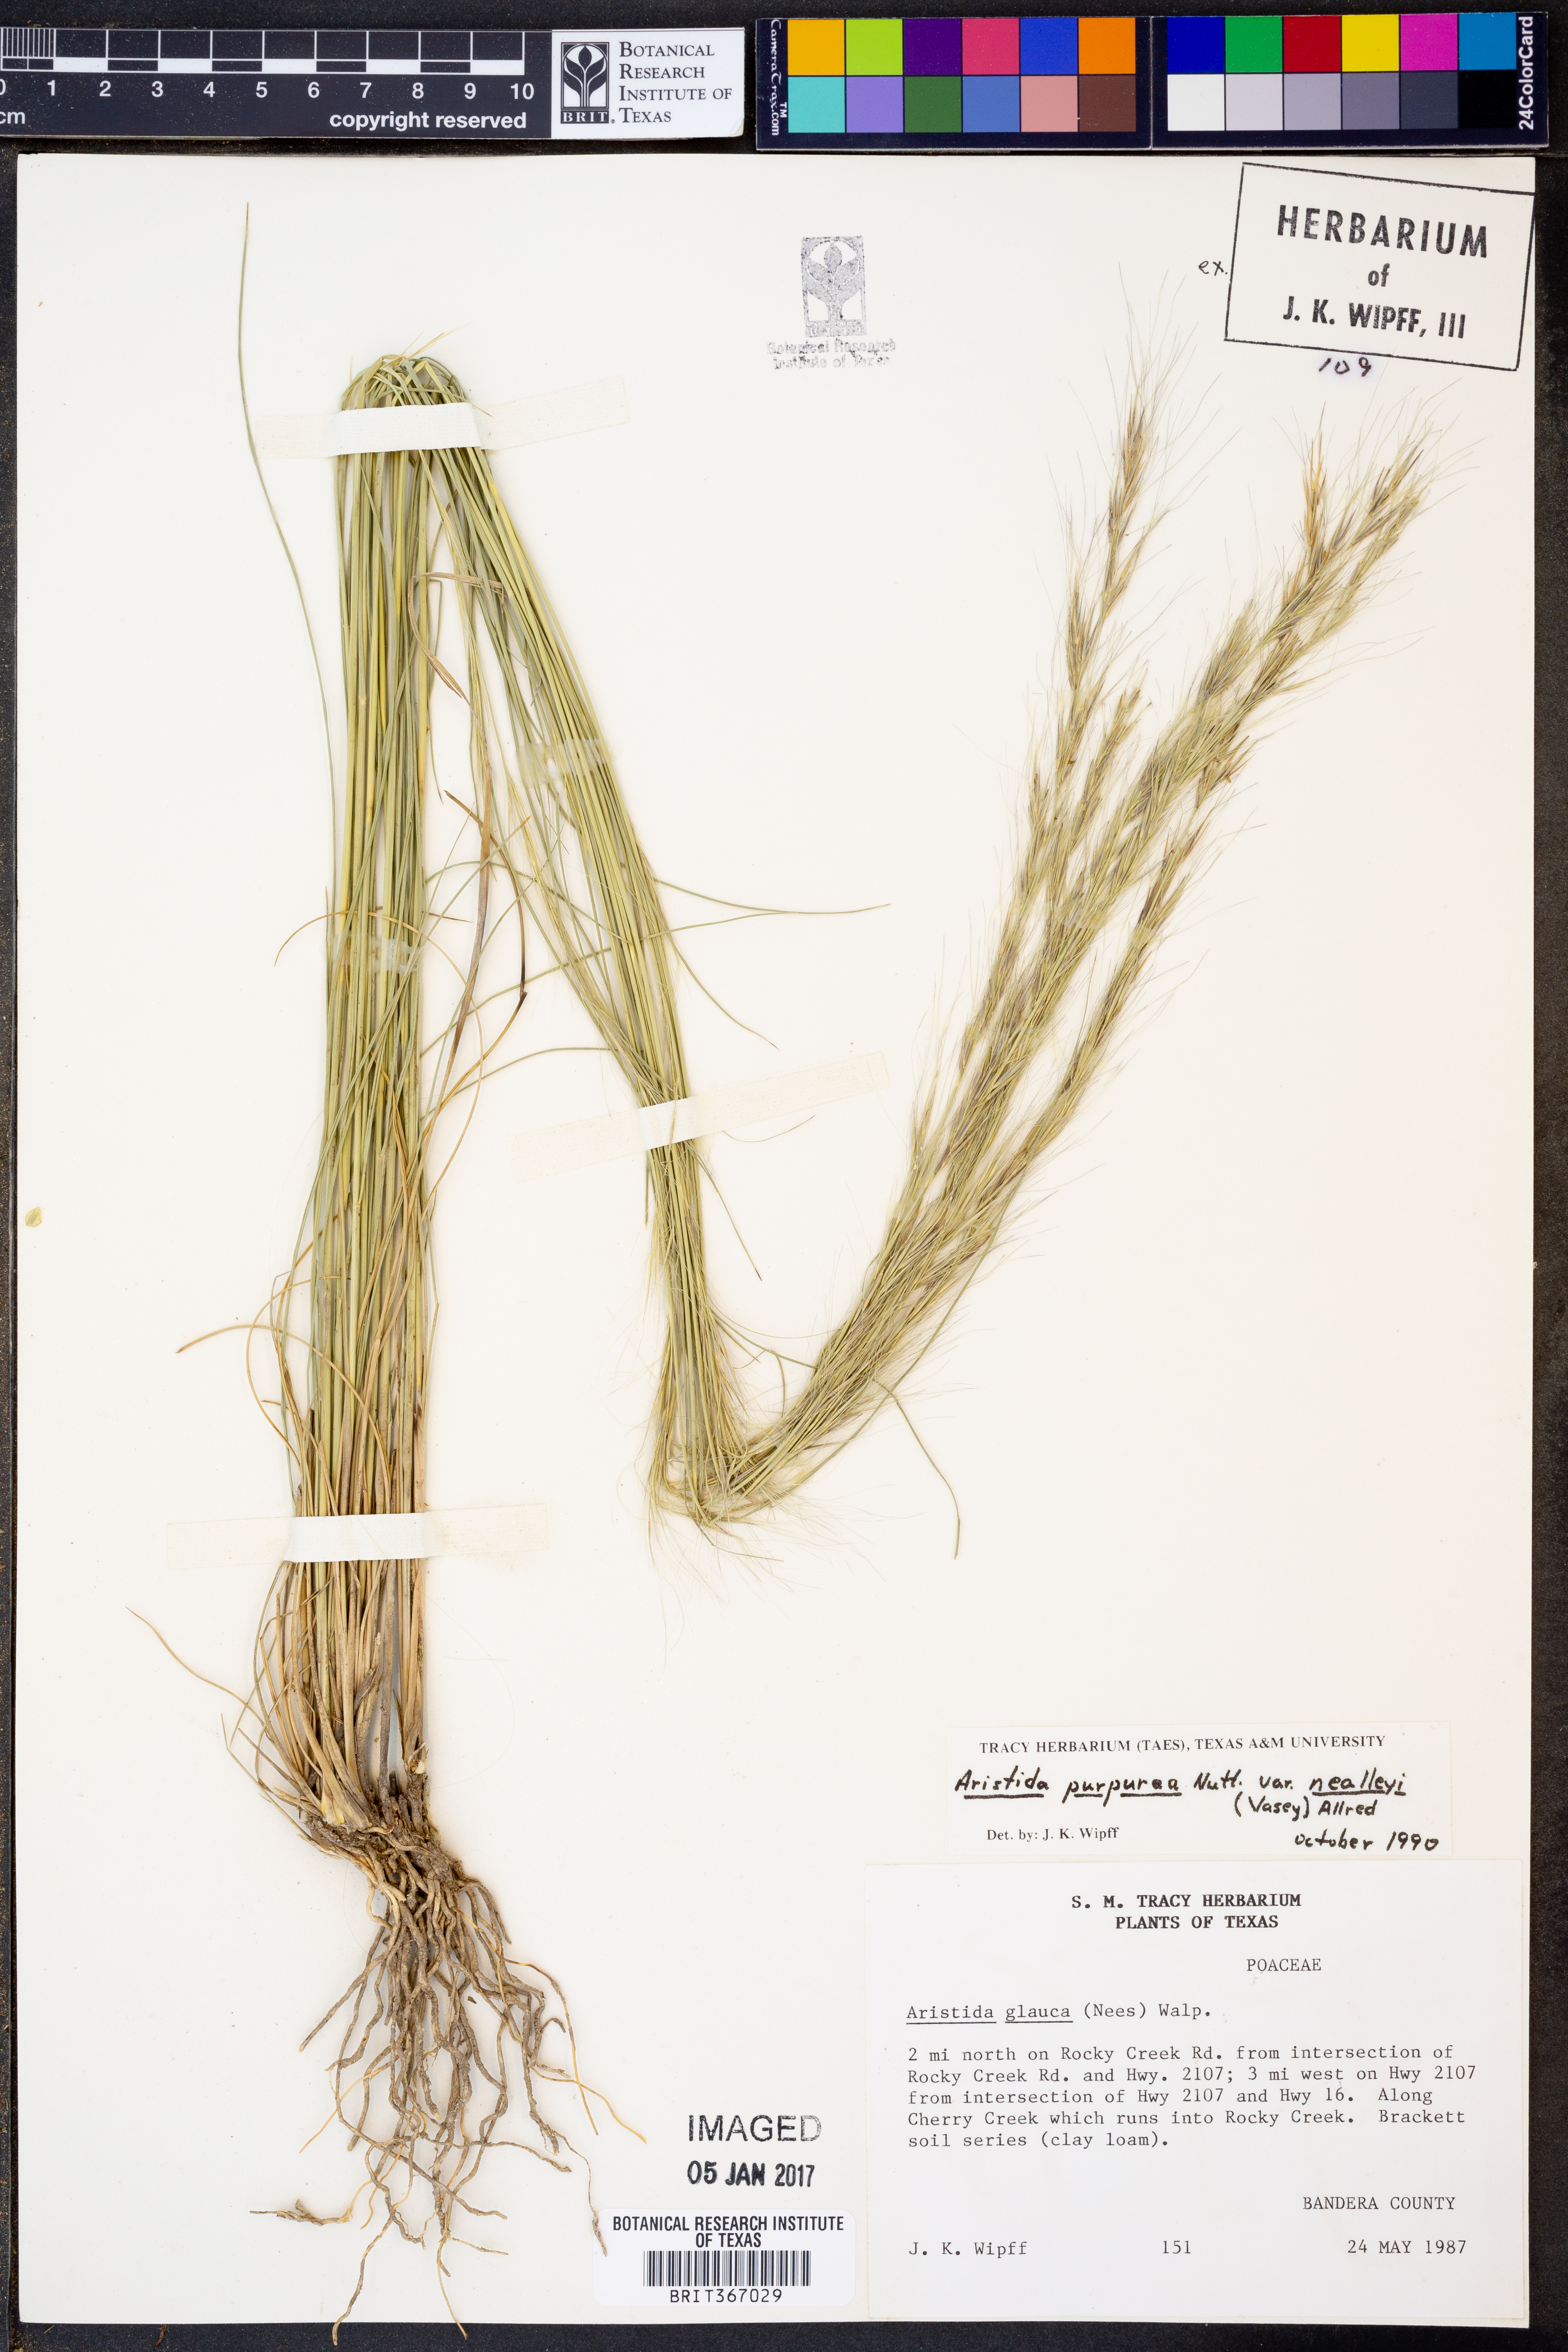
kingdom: Plantae
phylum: Tracheophyta
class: Liliopsida
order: Poales
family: Poaceae
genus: Aristida
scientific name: Aristida glauca
